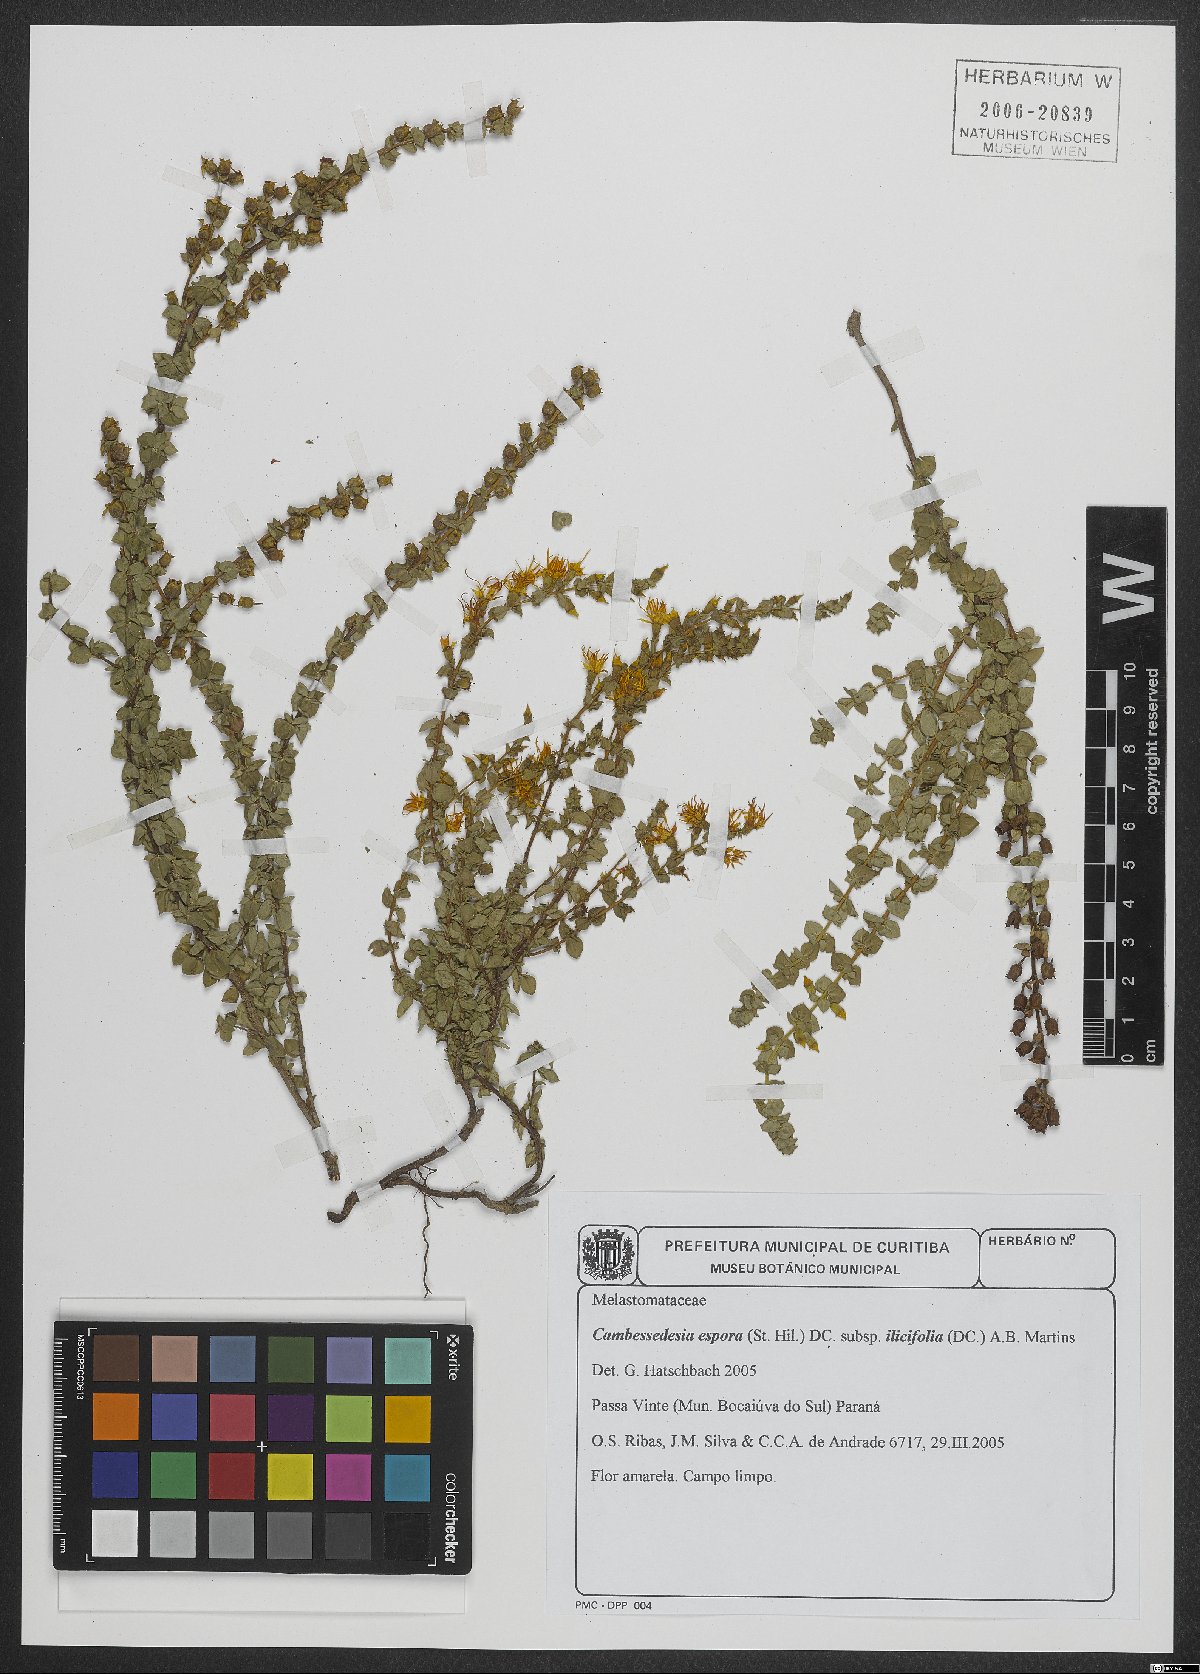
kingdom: Plantae
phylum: Tracheophyta
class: Magnoliopsida
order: Myrtales
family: Melastomataceae
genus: Cambessedesia
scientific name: Cambessedesia espora
